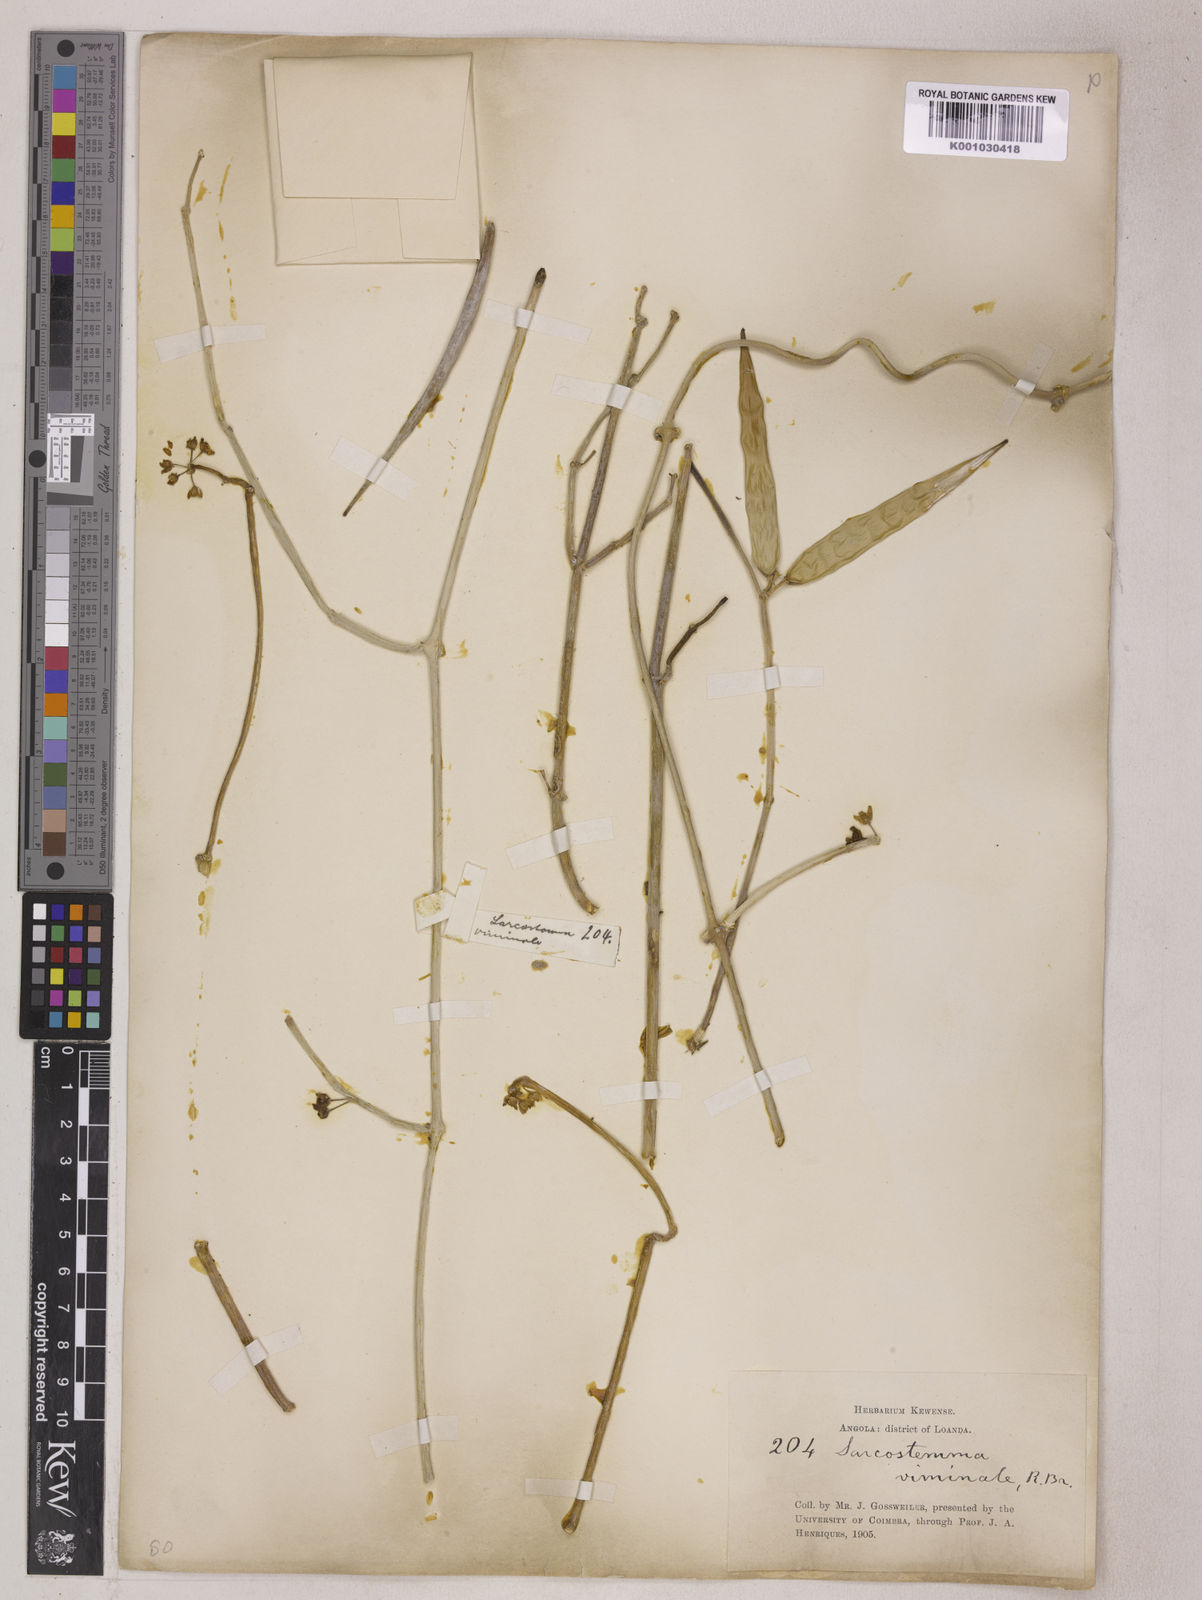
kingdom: Plantae
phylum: Tracheophyta
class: Magnoliopsida
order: Gentianales
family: Apocynaceae
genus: Cynanchum
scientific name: Cynanchum viminale
